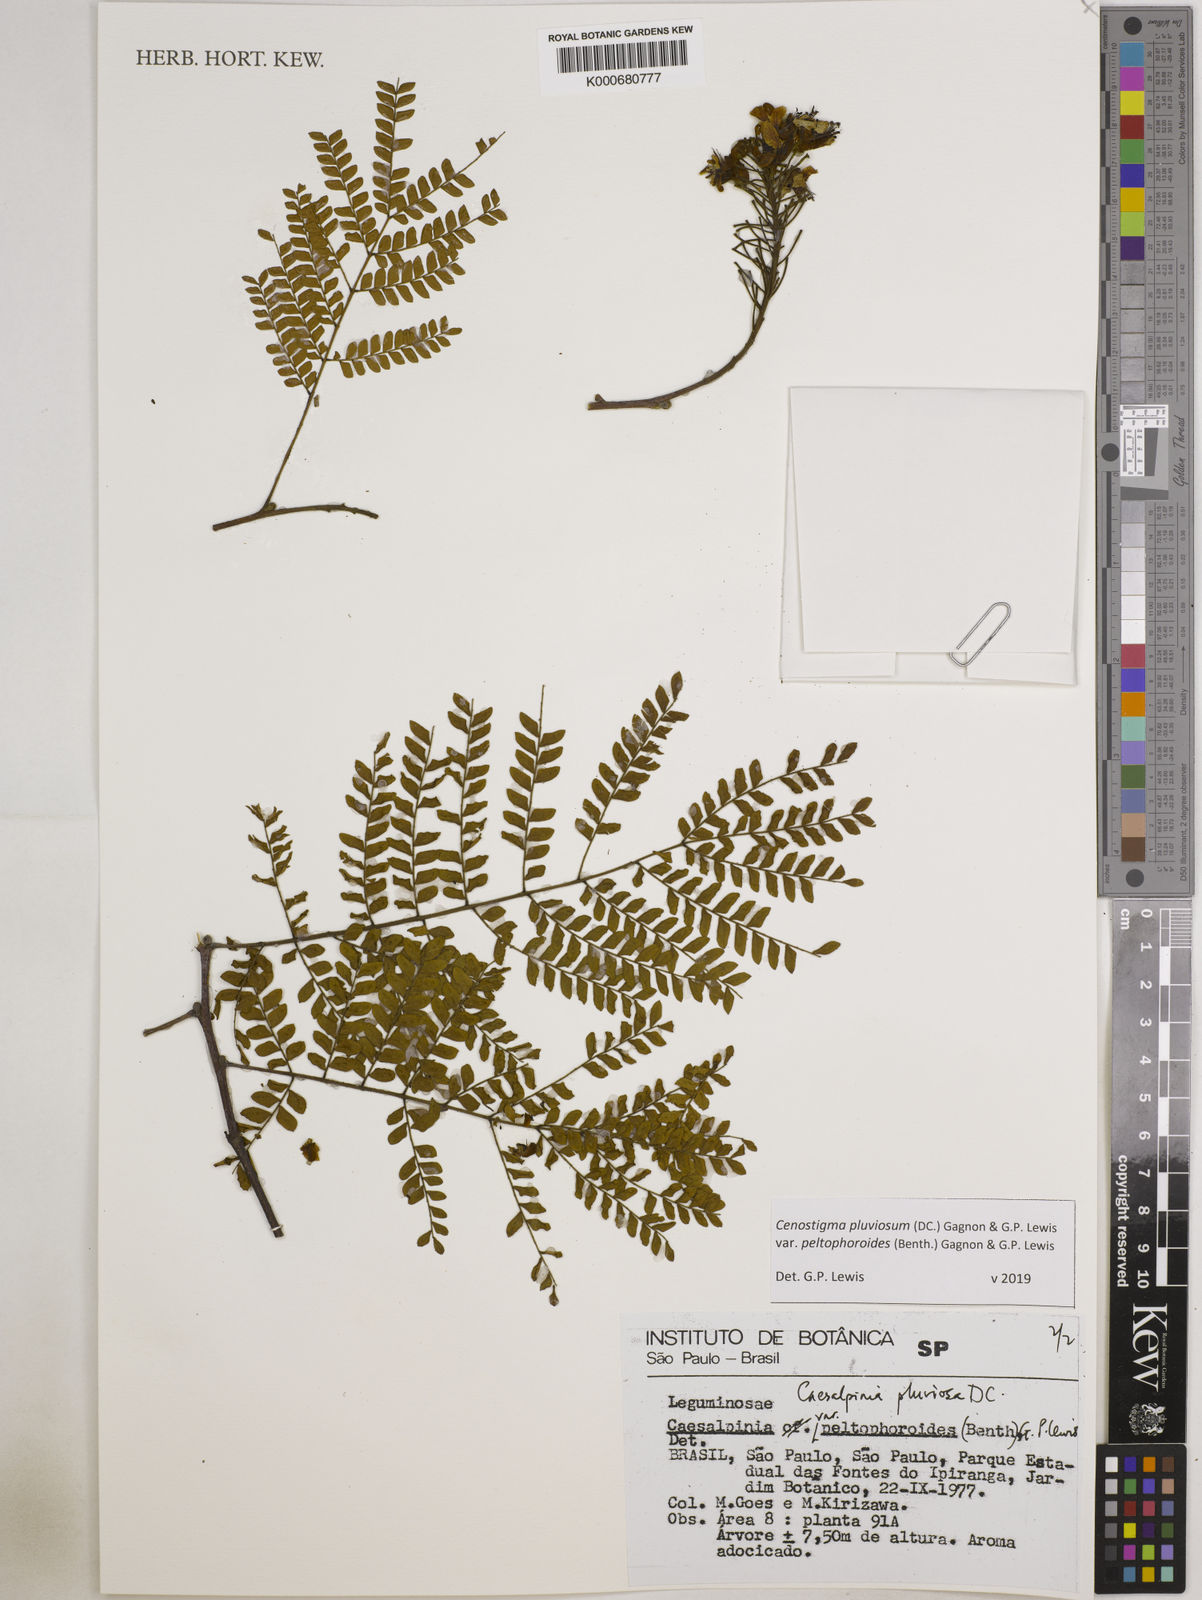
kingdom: Plantae
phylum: Tracheophyta
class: Magnoliopsida
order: Fabales
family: Fabaceae
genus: Cenostigma
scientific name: Cenostigma pluviosum
